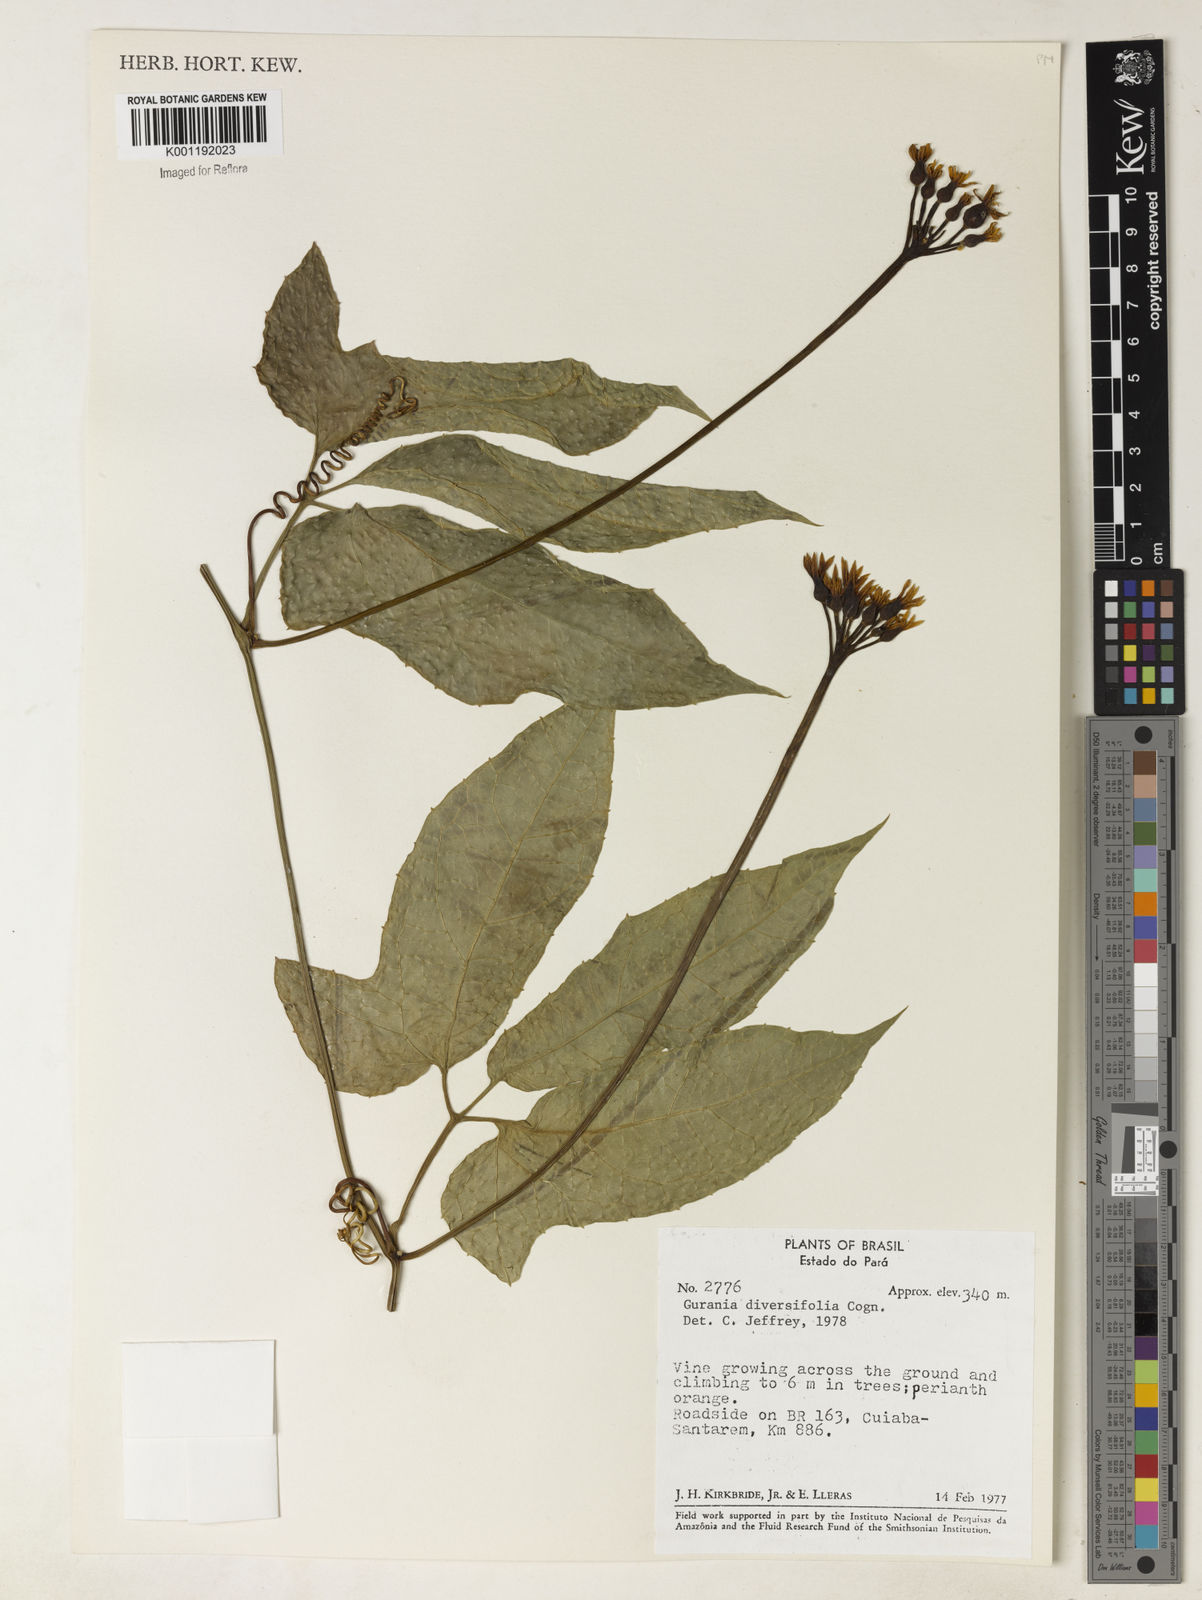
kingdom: Plantae
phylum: Tracheophyta
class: Magnoliopsida
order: Cucurbitales
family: Cucurbitaceae
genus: Gurania
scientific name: Gurania acuminata
